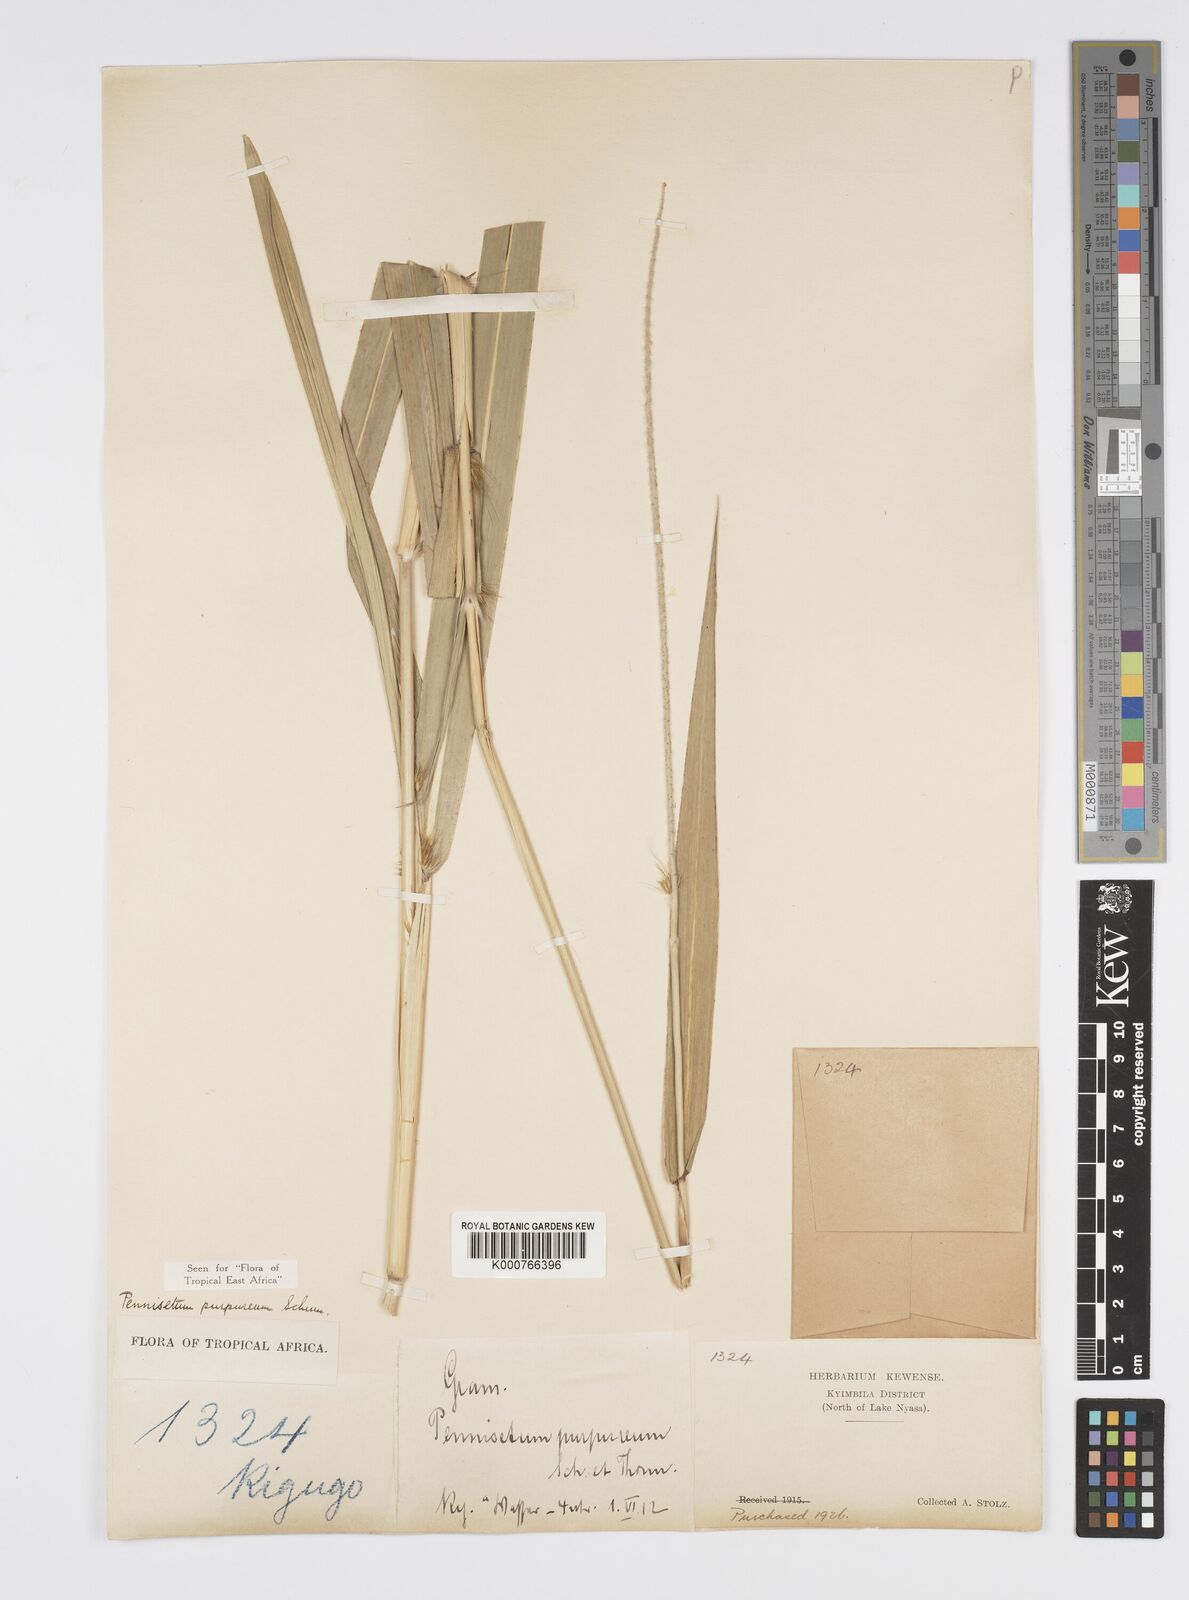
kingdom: Plantae
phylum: Tracheophyta
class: Liliopsida
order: Poales
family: Poaceae
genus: Cenchrus
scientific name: Cenchrus purpureus
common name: Elephant grass
